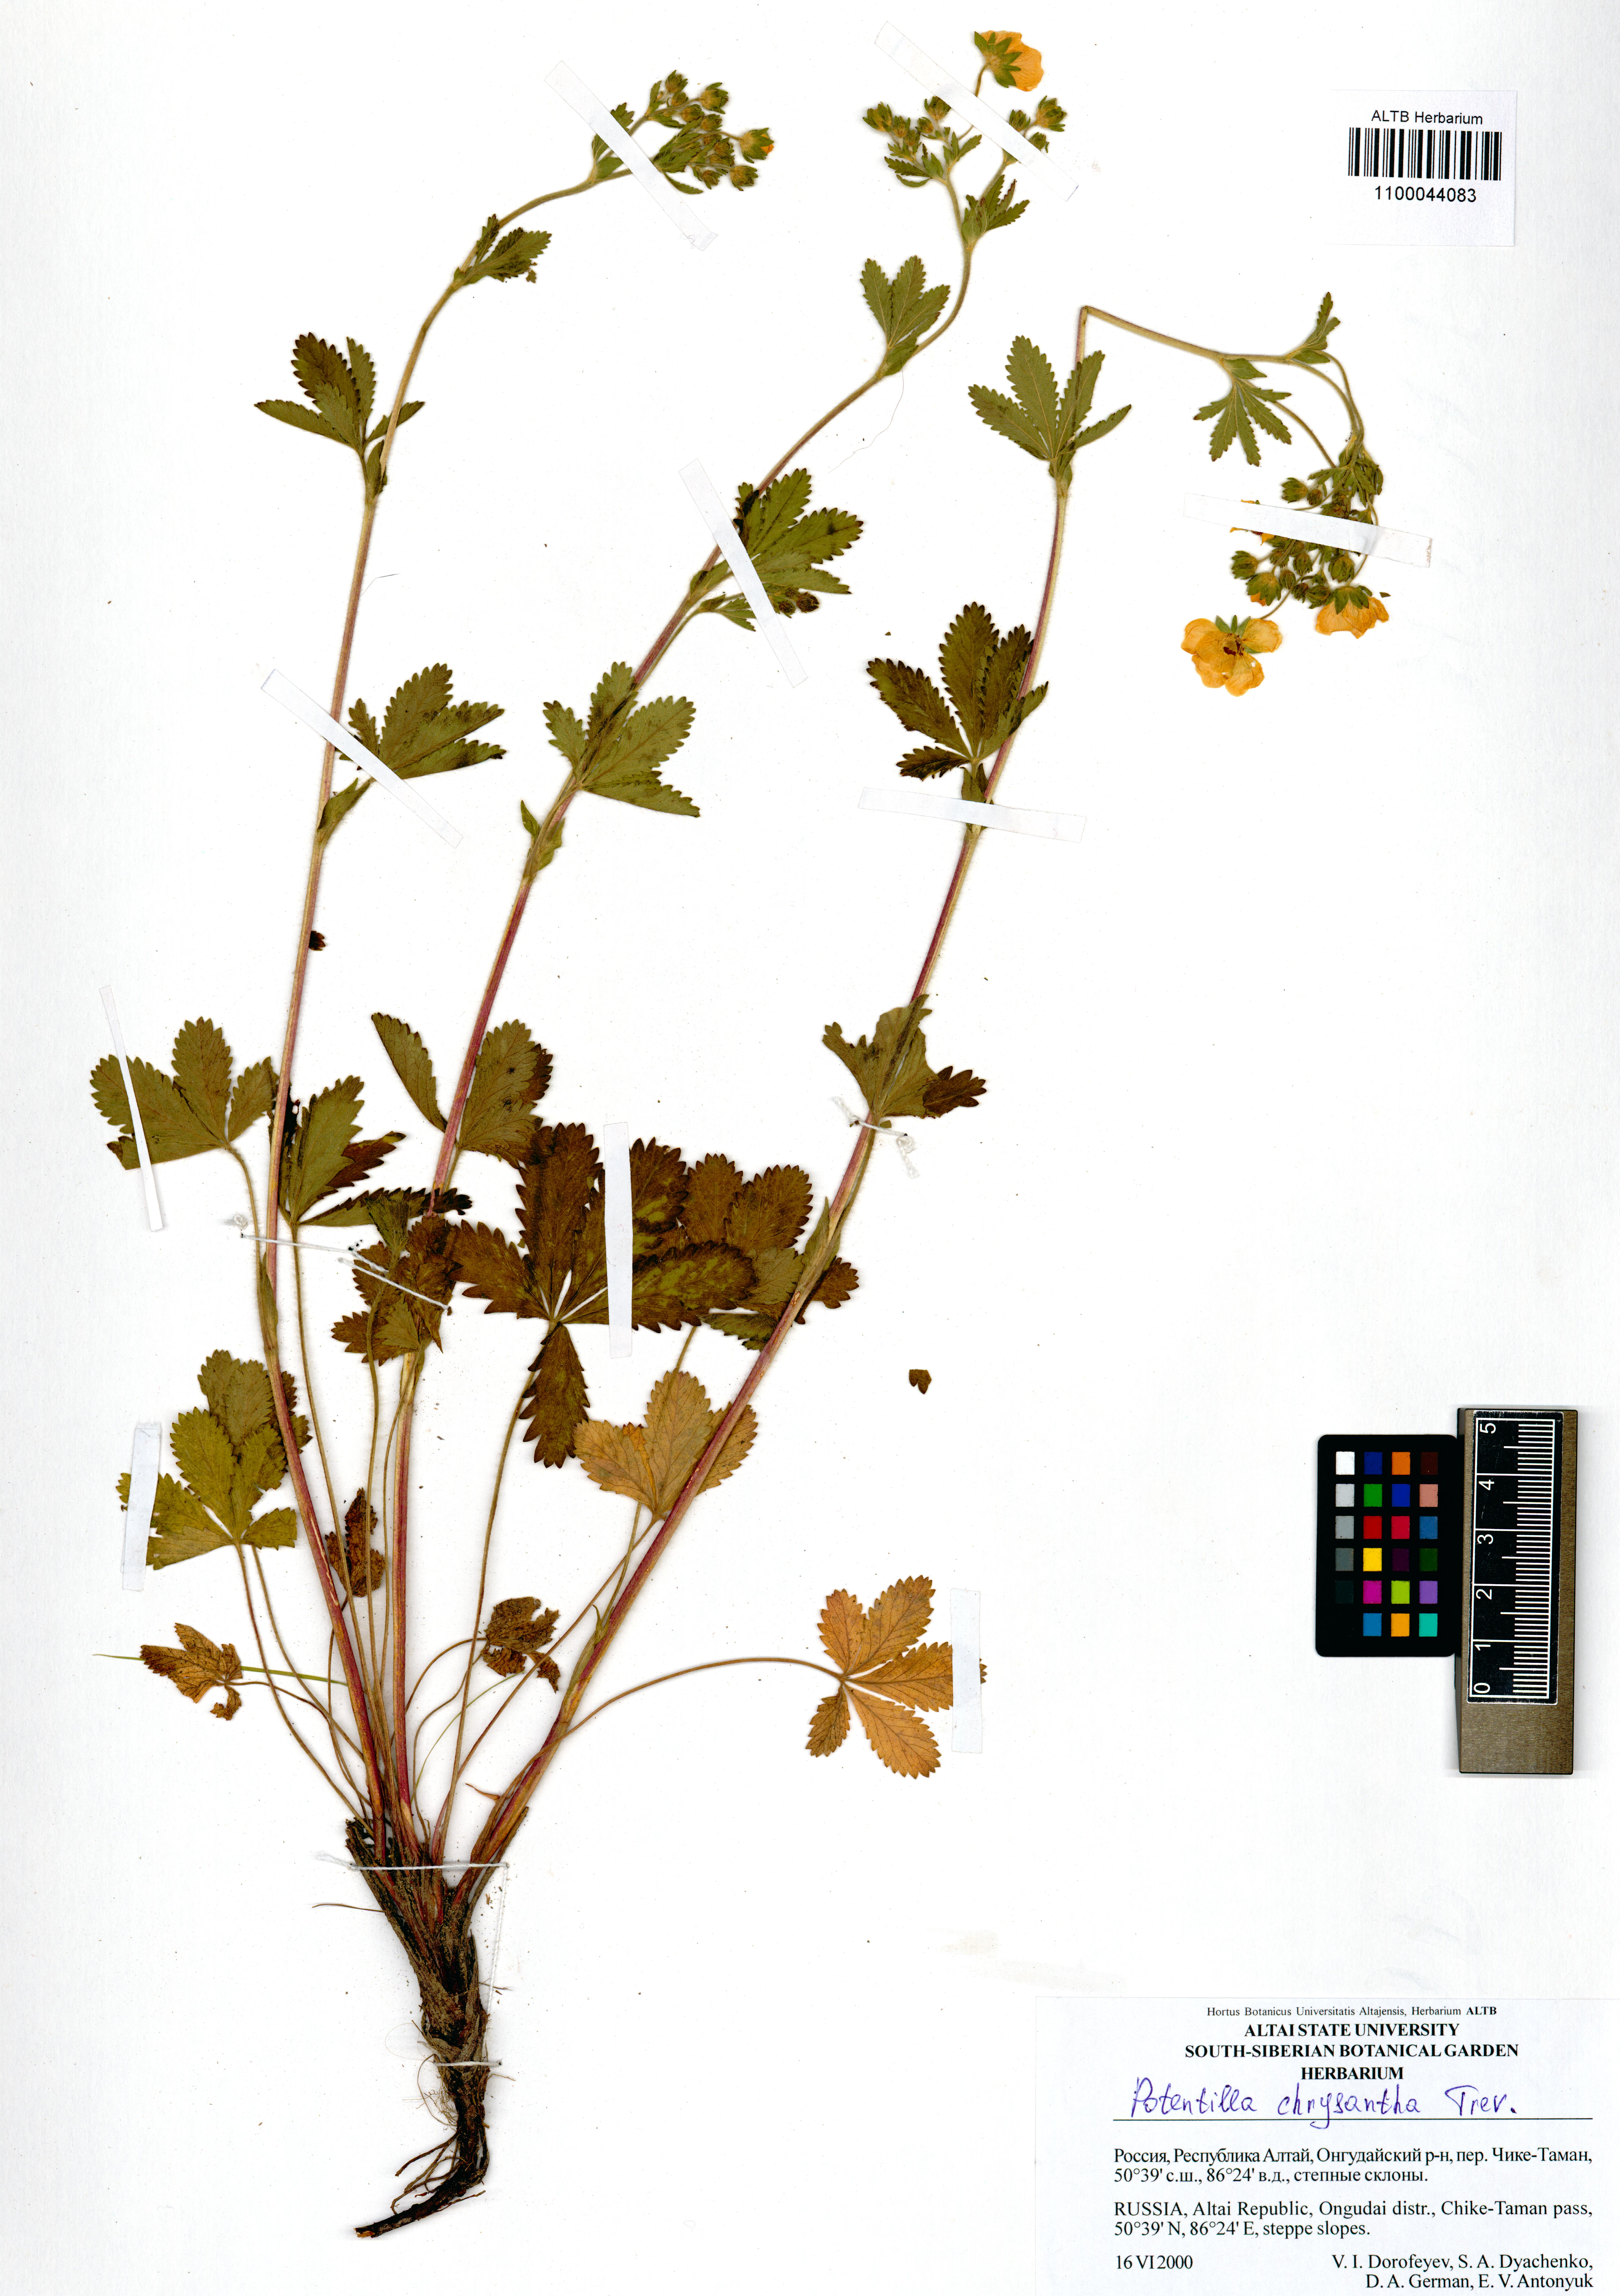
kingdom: Plantae
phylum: Tracheophyta
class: Magnoliopsida
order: Rosales
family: Rosaceae
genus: Potentilla
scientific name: Potentilla chrysantha
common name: Thuringian cinquefoil
